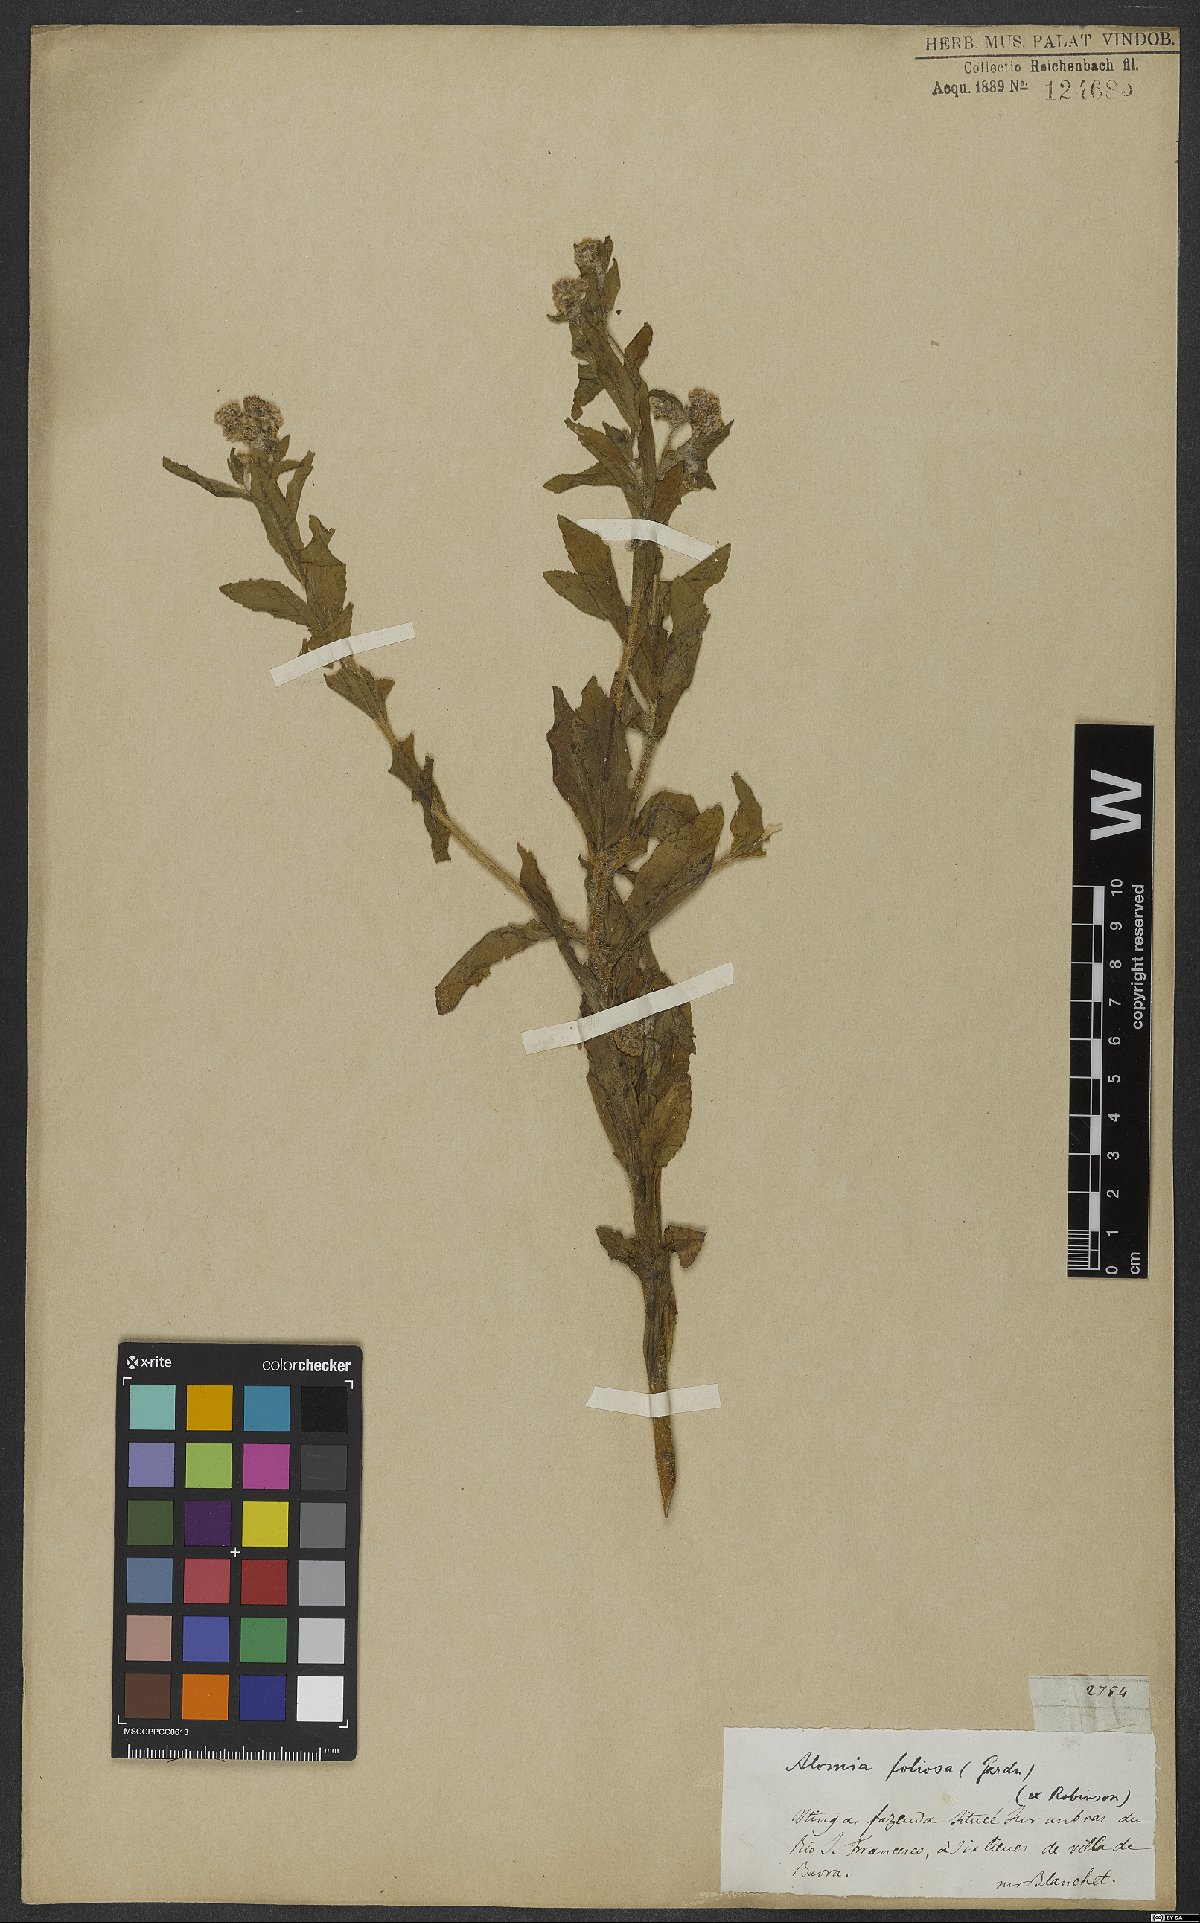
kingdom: Plantae
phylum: Tracheophyta
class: Magnoliopsida
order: Asterales
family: Asteraceae
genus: Teixeiranthus
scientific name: Teixeiranthus foliosus
